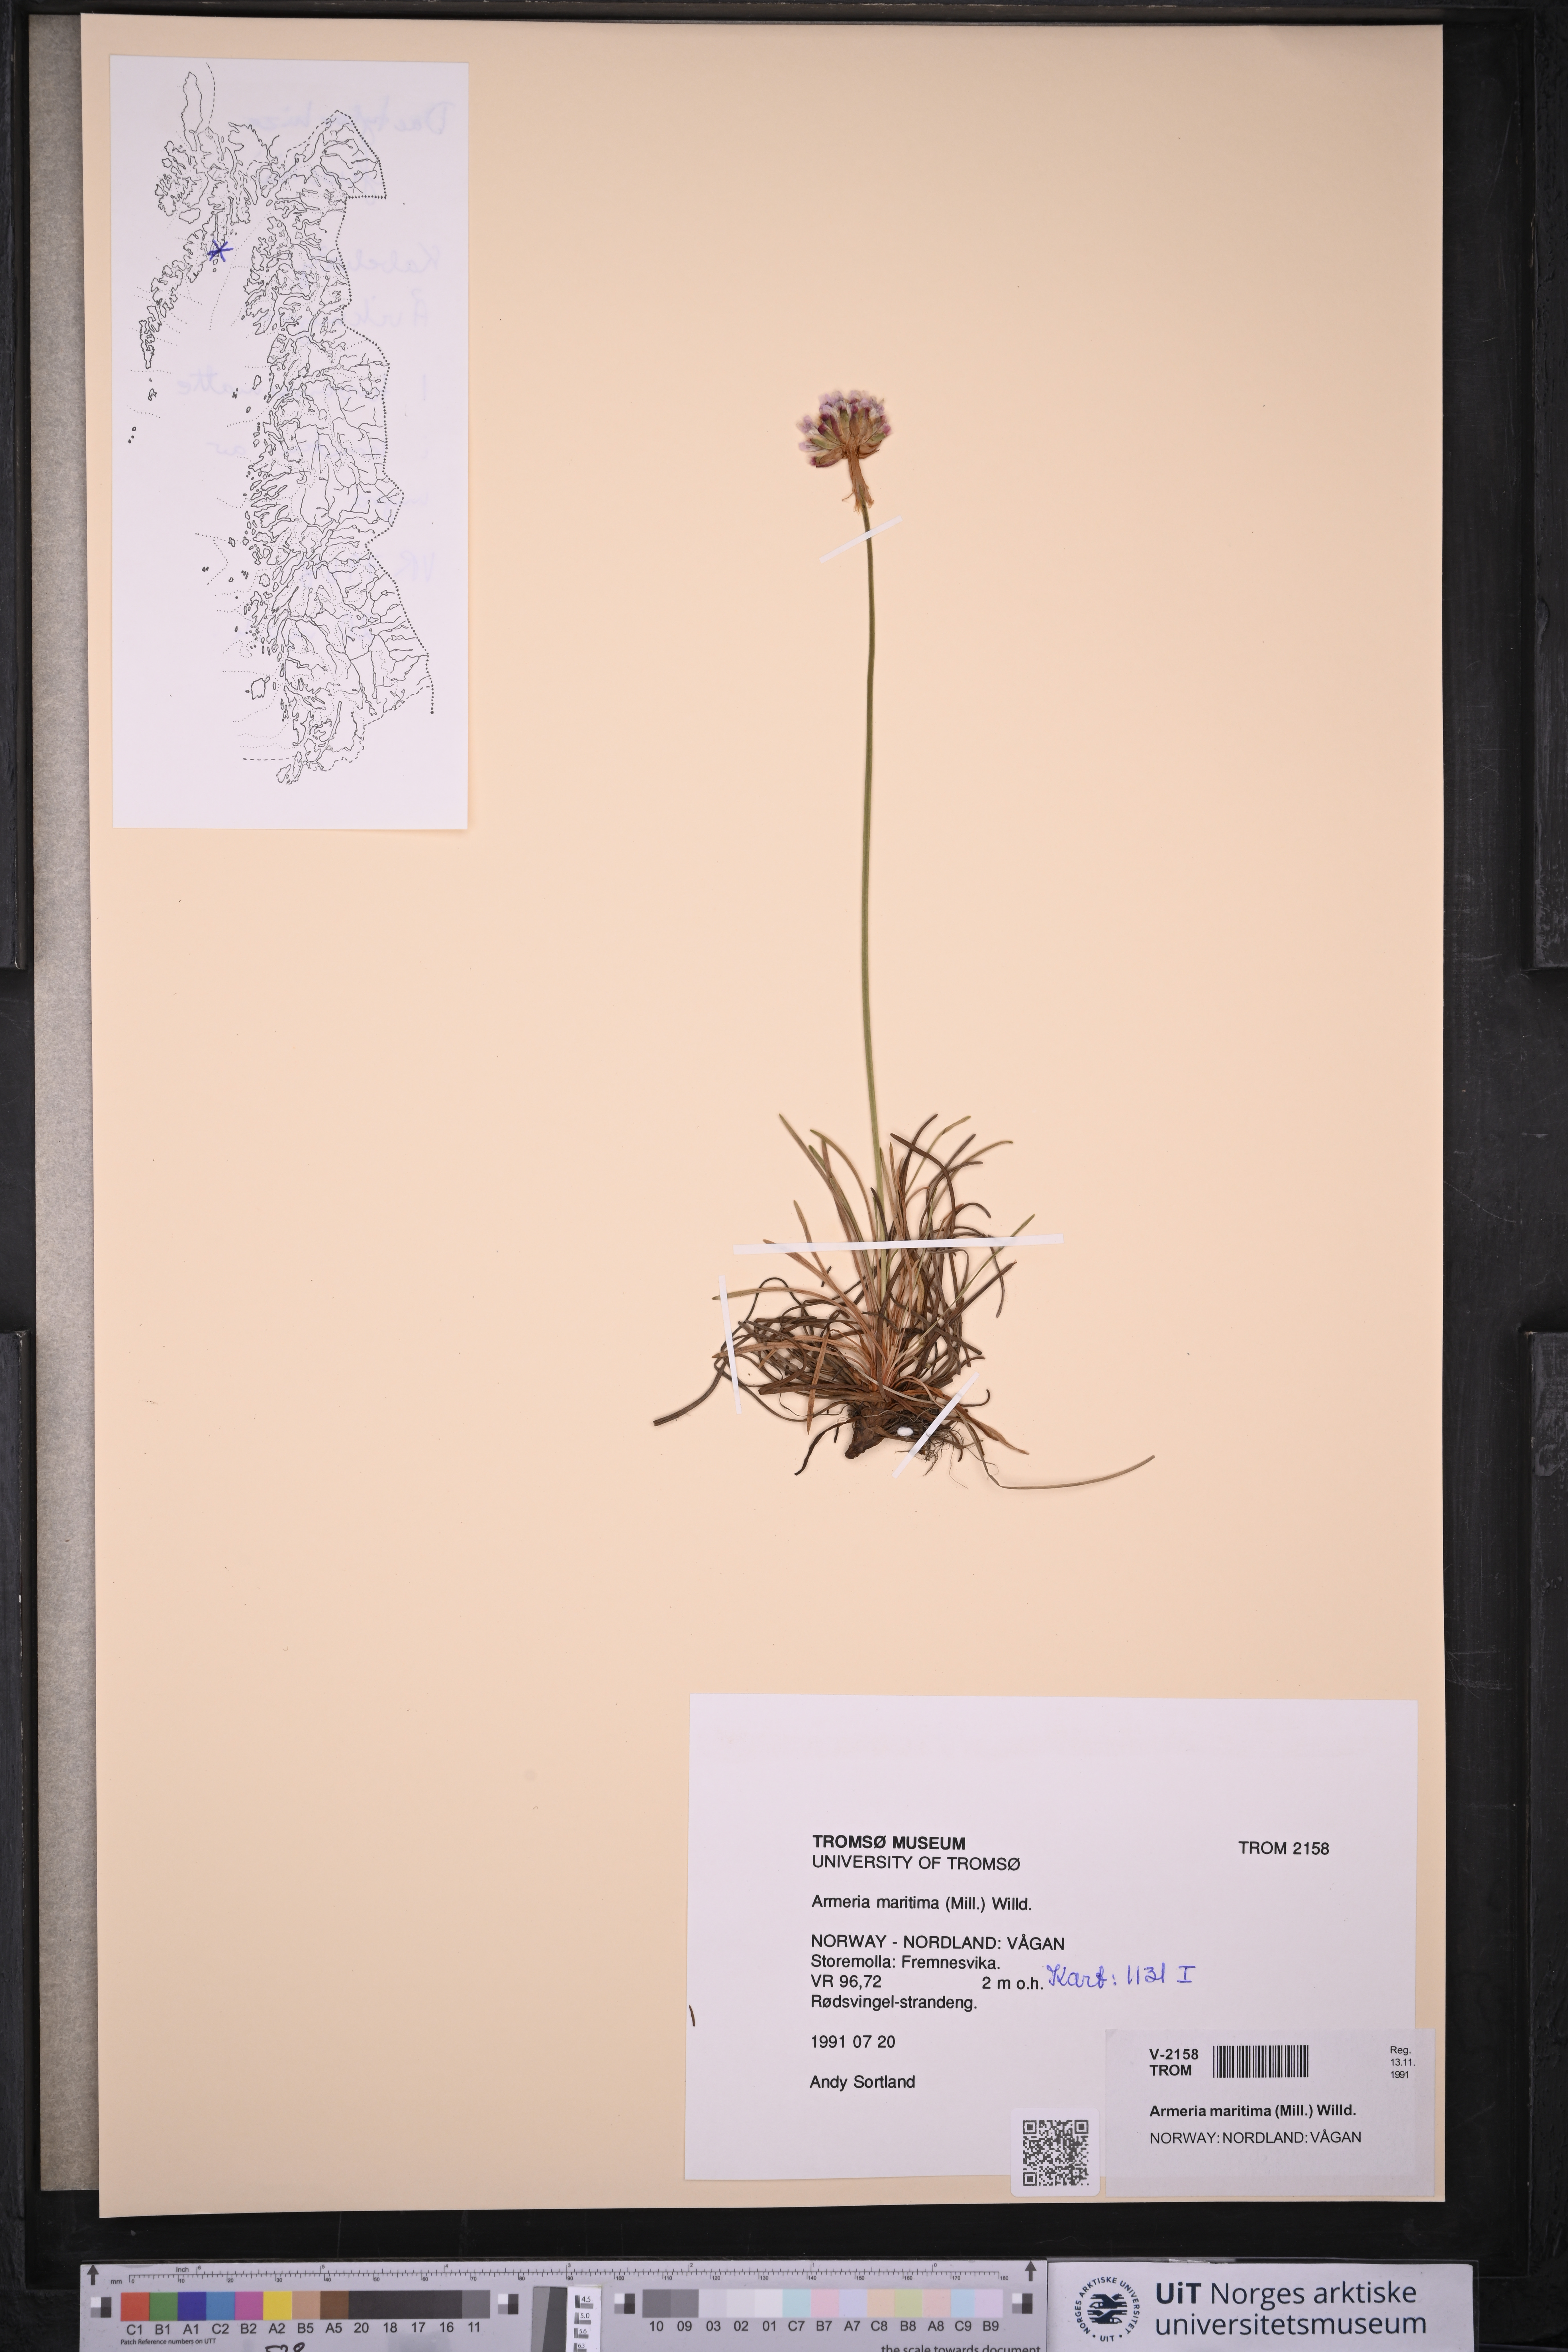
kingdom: Plantae
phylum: Tracheophyta
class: Magnoliopsida
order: Caryophyllales
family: Plumbaginaceae
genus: Armeria
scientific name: Armeria maritima
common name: Thrift
